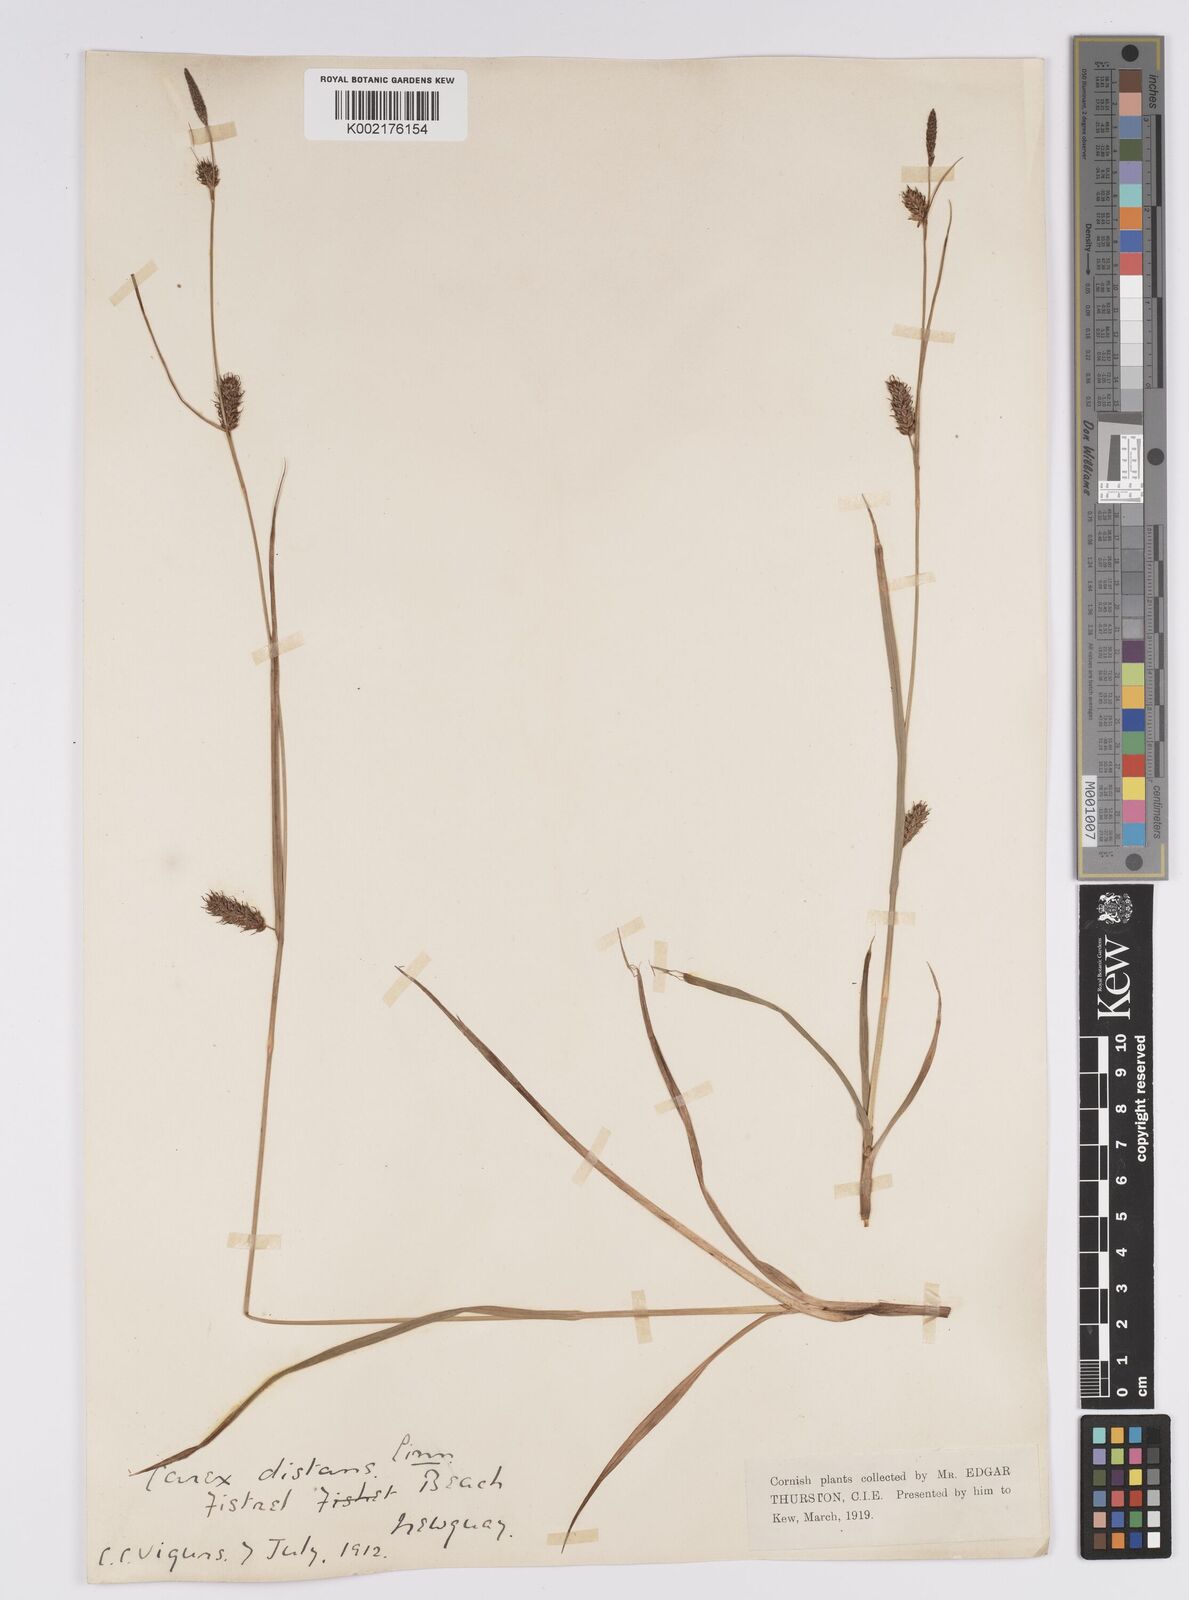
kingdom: Plantae
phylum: Tracheophyta
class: Liliopsida
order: Poales
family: Cyperaceae
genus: Carex
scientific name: Carex distans
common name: Distant sedge
